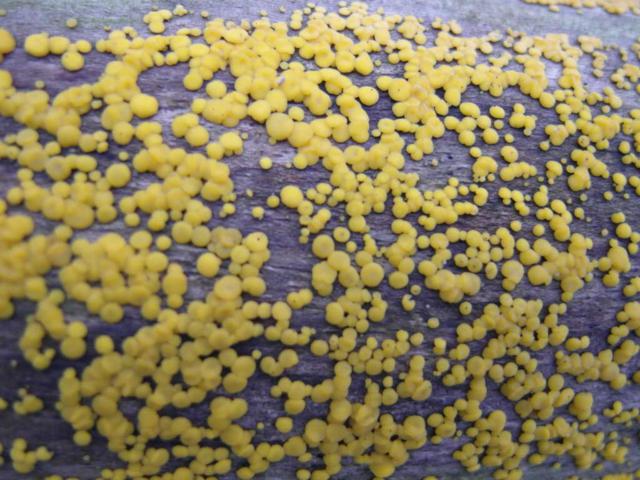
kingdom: Fungi
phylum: Ascomycota
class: Leotiomycetes
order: Helotiales
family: Pezizellaceae
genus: Calycina
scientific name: Calycina citrina
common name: almindelig gulskive
